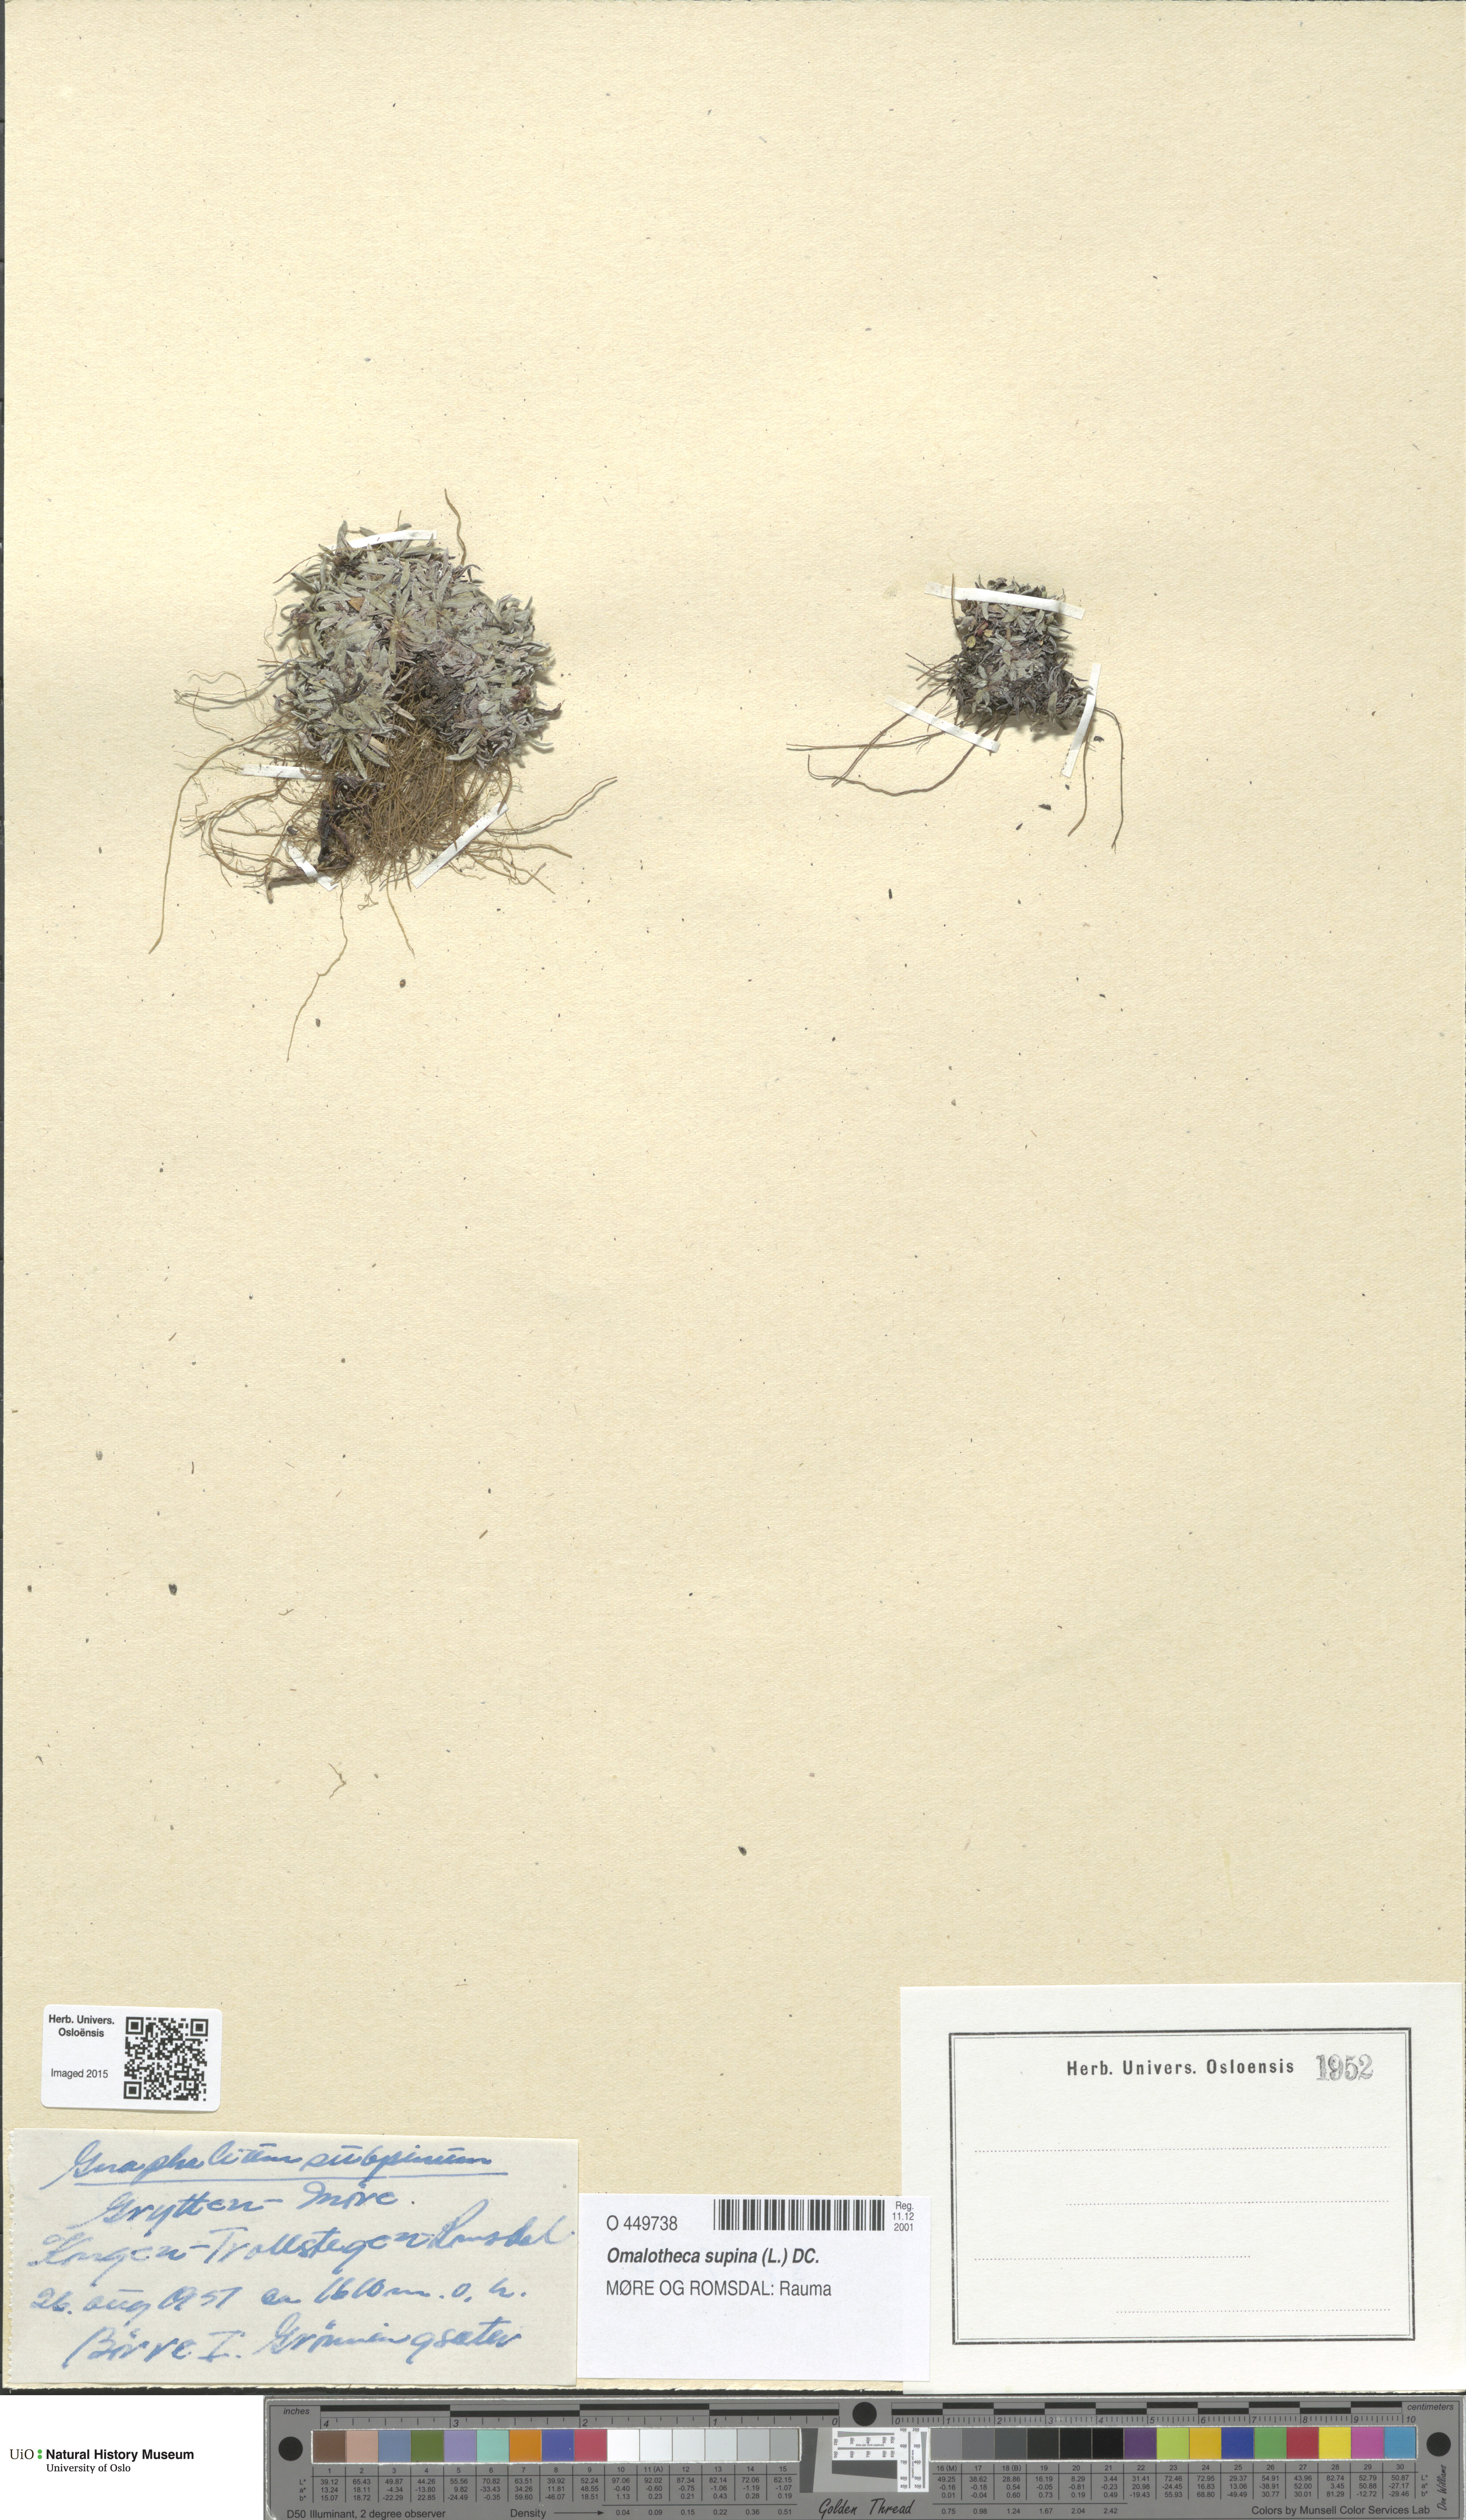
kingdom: Plantae
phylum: Tracheophyta
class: Magnoliopsida
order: Asterales
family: Asteraceae
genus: Omalotheca
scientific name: Omalotheca supina
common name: Alpine arctic-cudweed
